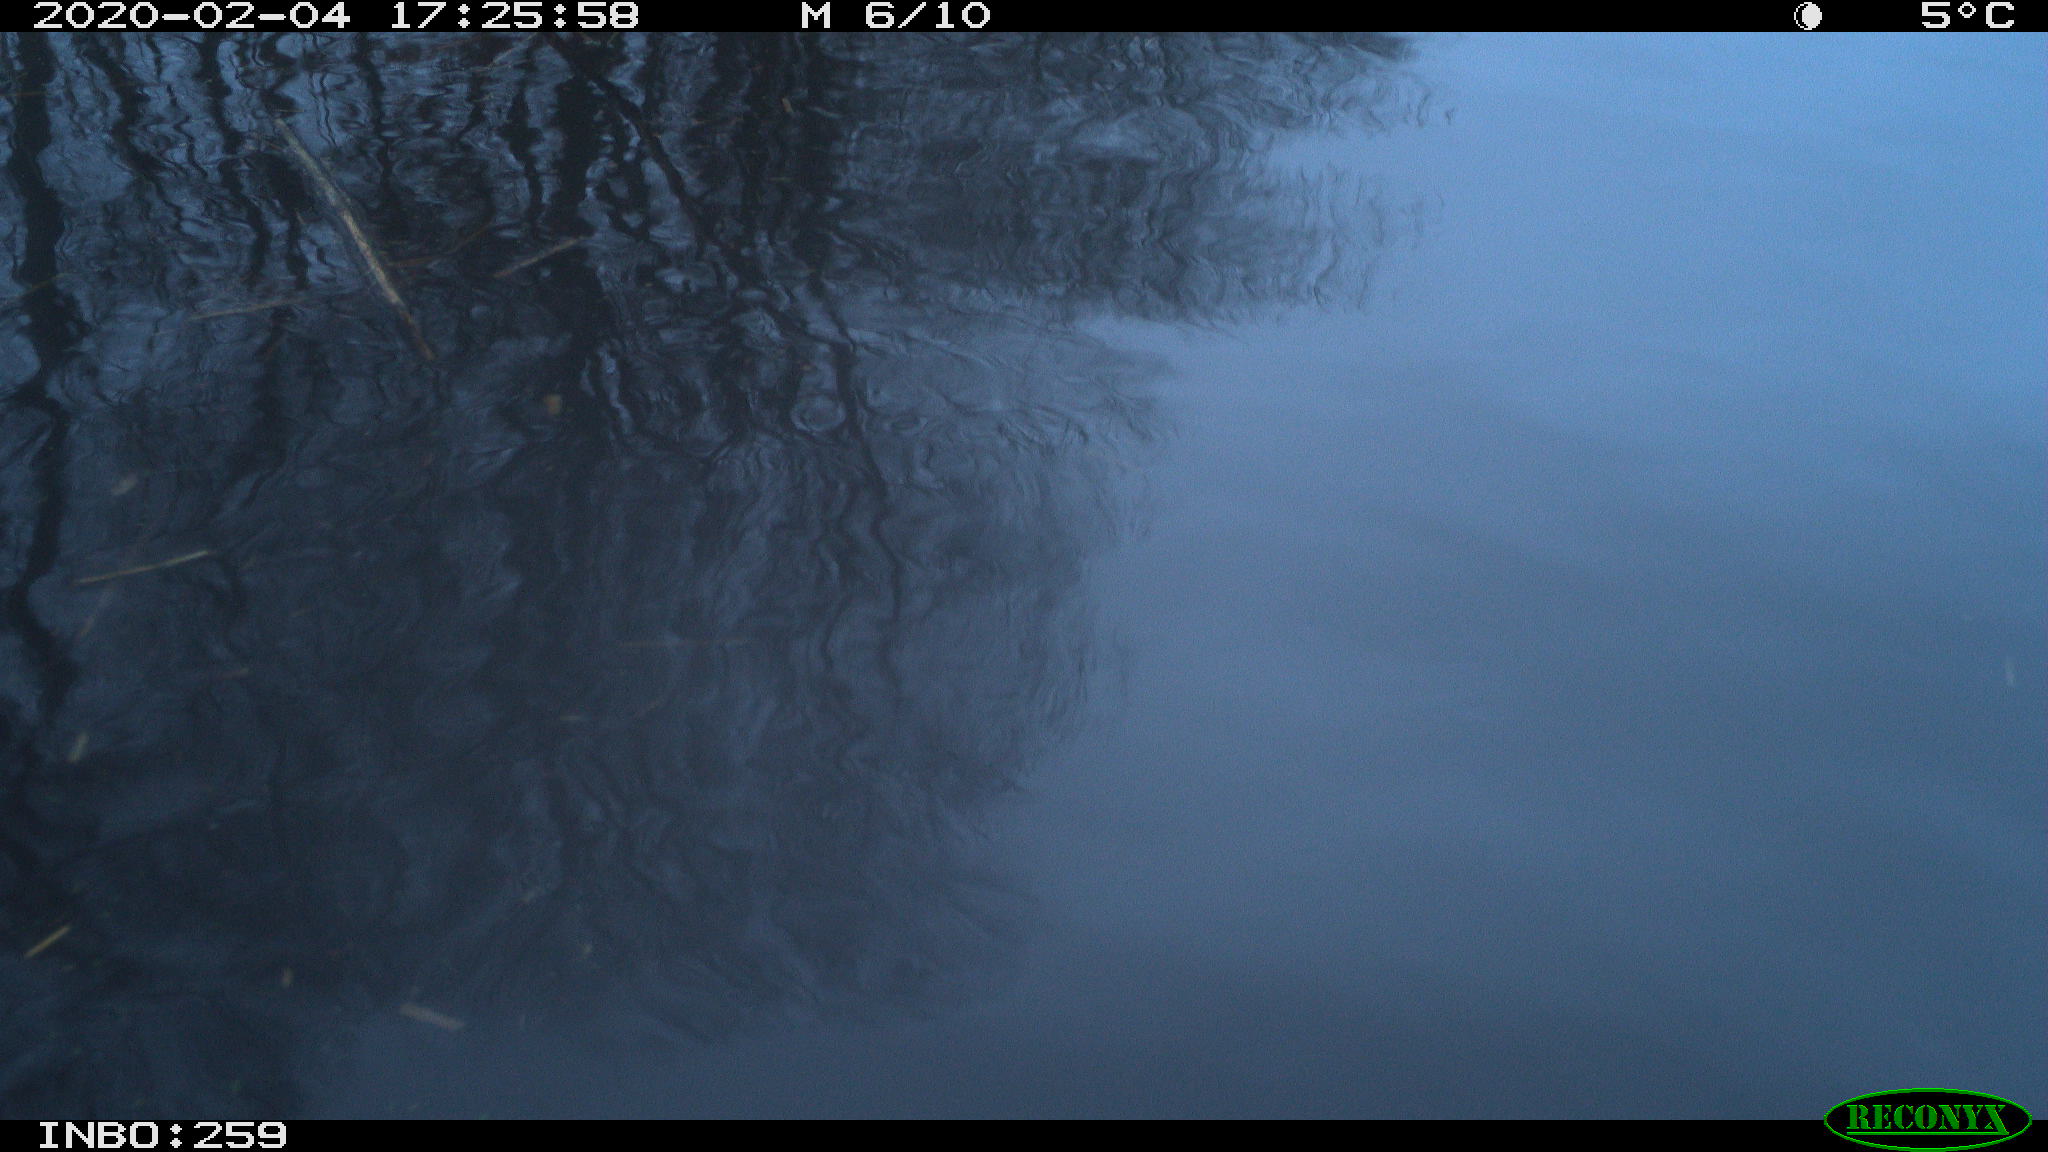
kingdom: Animalia
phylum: Chordata
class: Aves
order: Gruiformes
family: Rallidae
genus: Gallinula
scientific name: Gallinula chloropus
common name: Common moorhen
